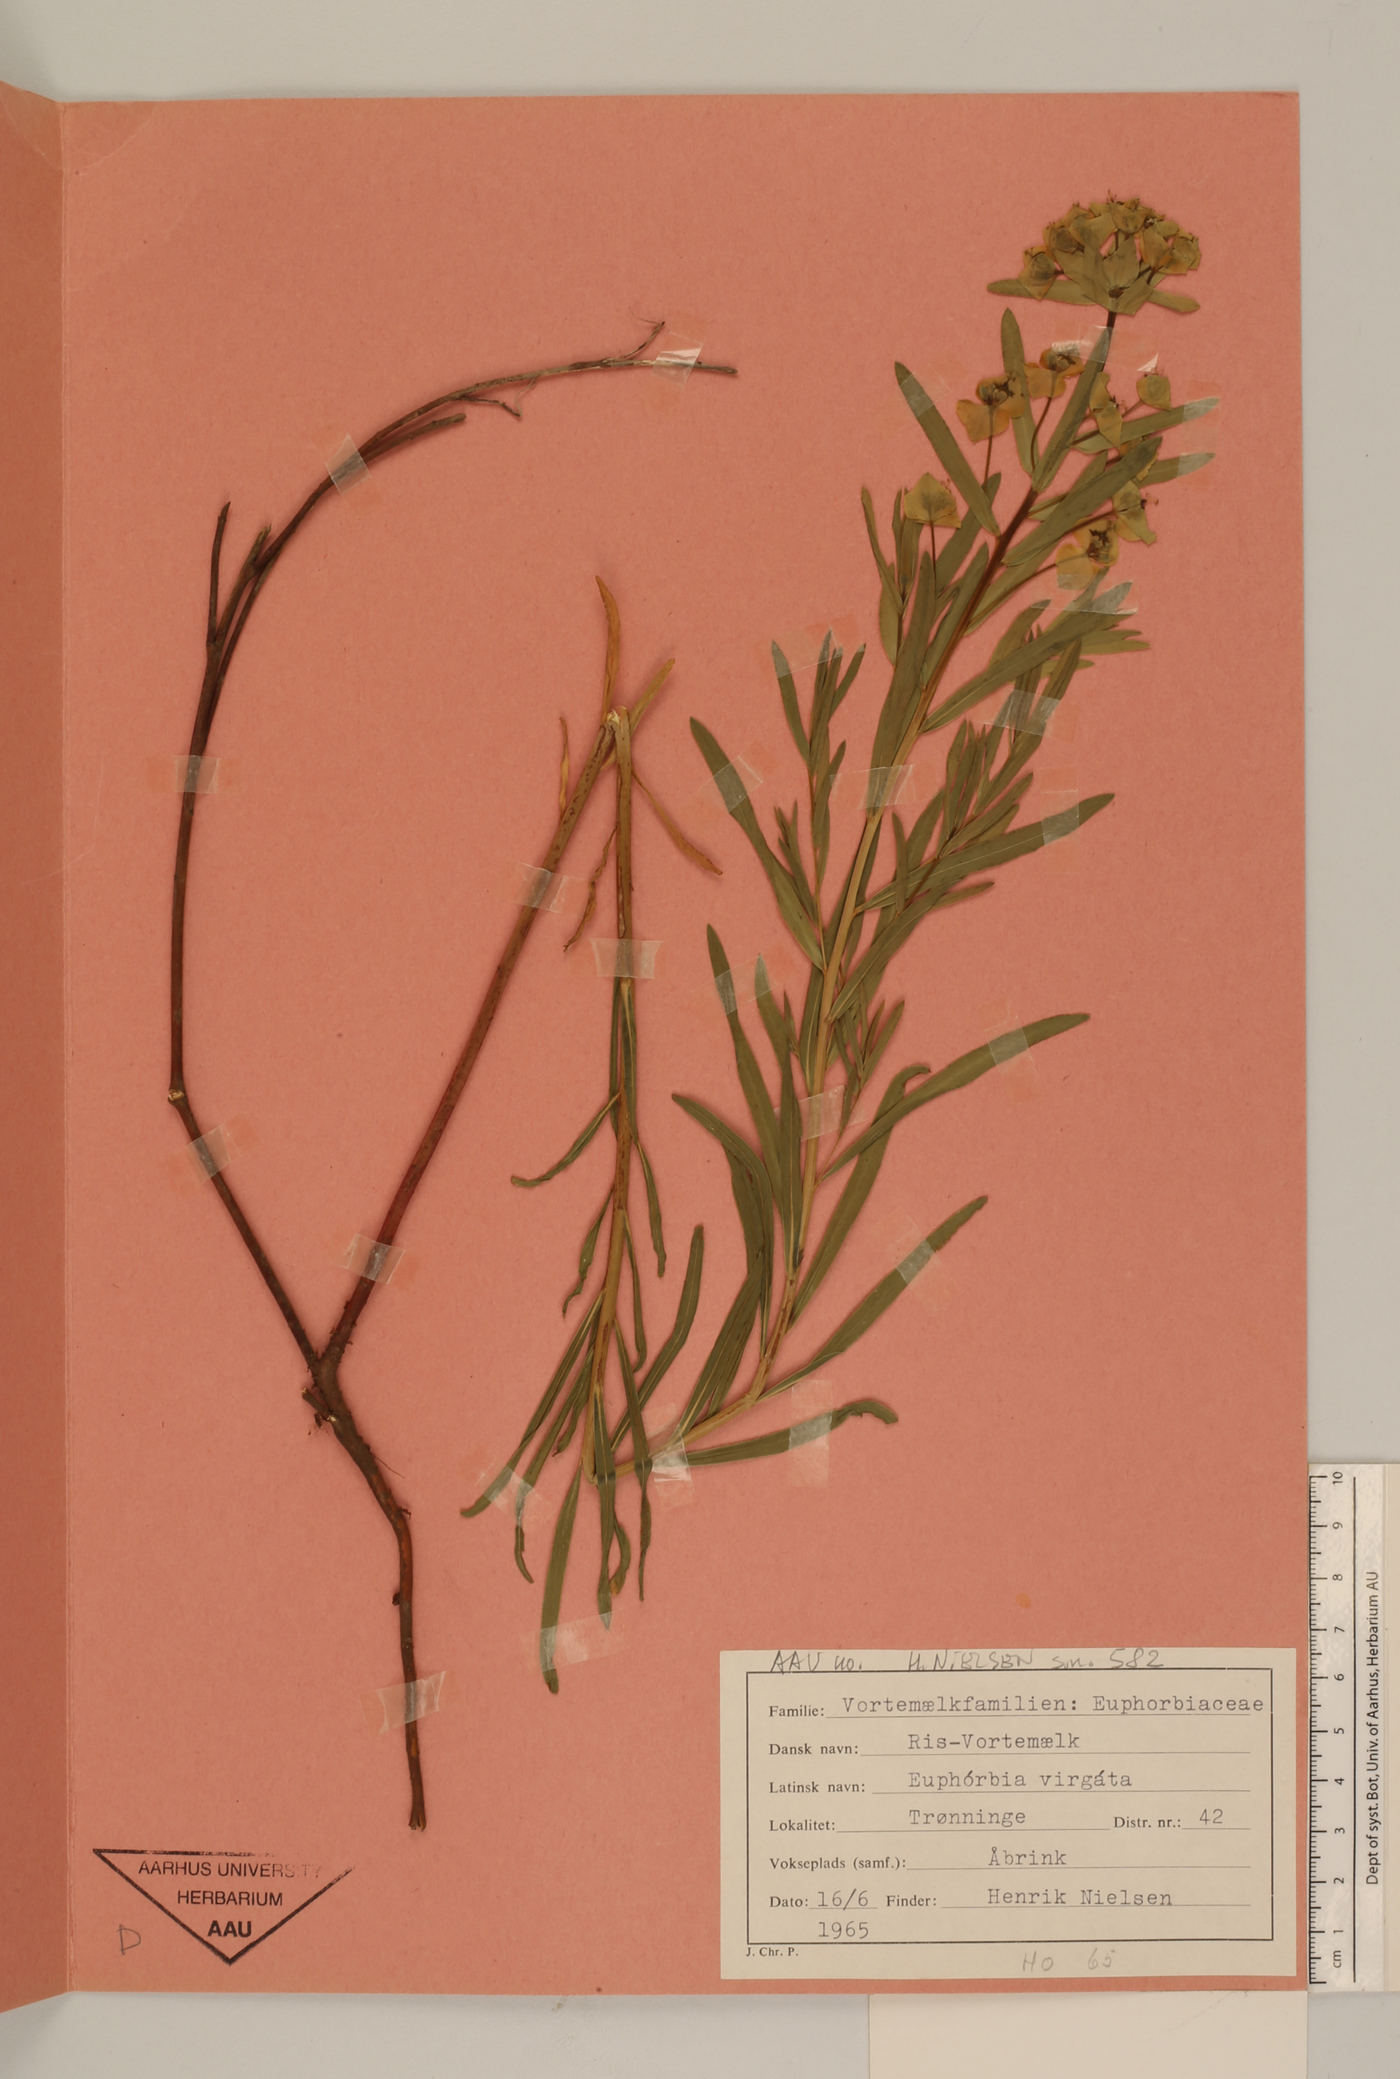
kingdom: Plantae
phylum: Tracheophyta
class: Magnoliopsida
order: Malpighiales
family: Euphorbiaceae
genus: Euphorbia
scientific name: Euphorbia virgata
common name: Leafy spurge
